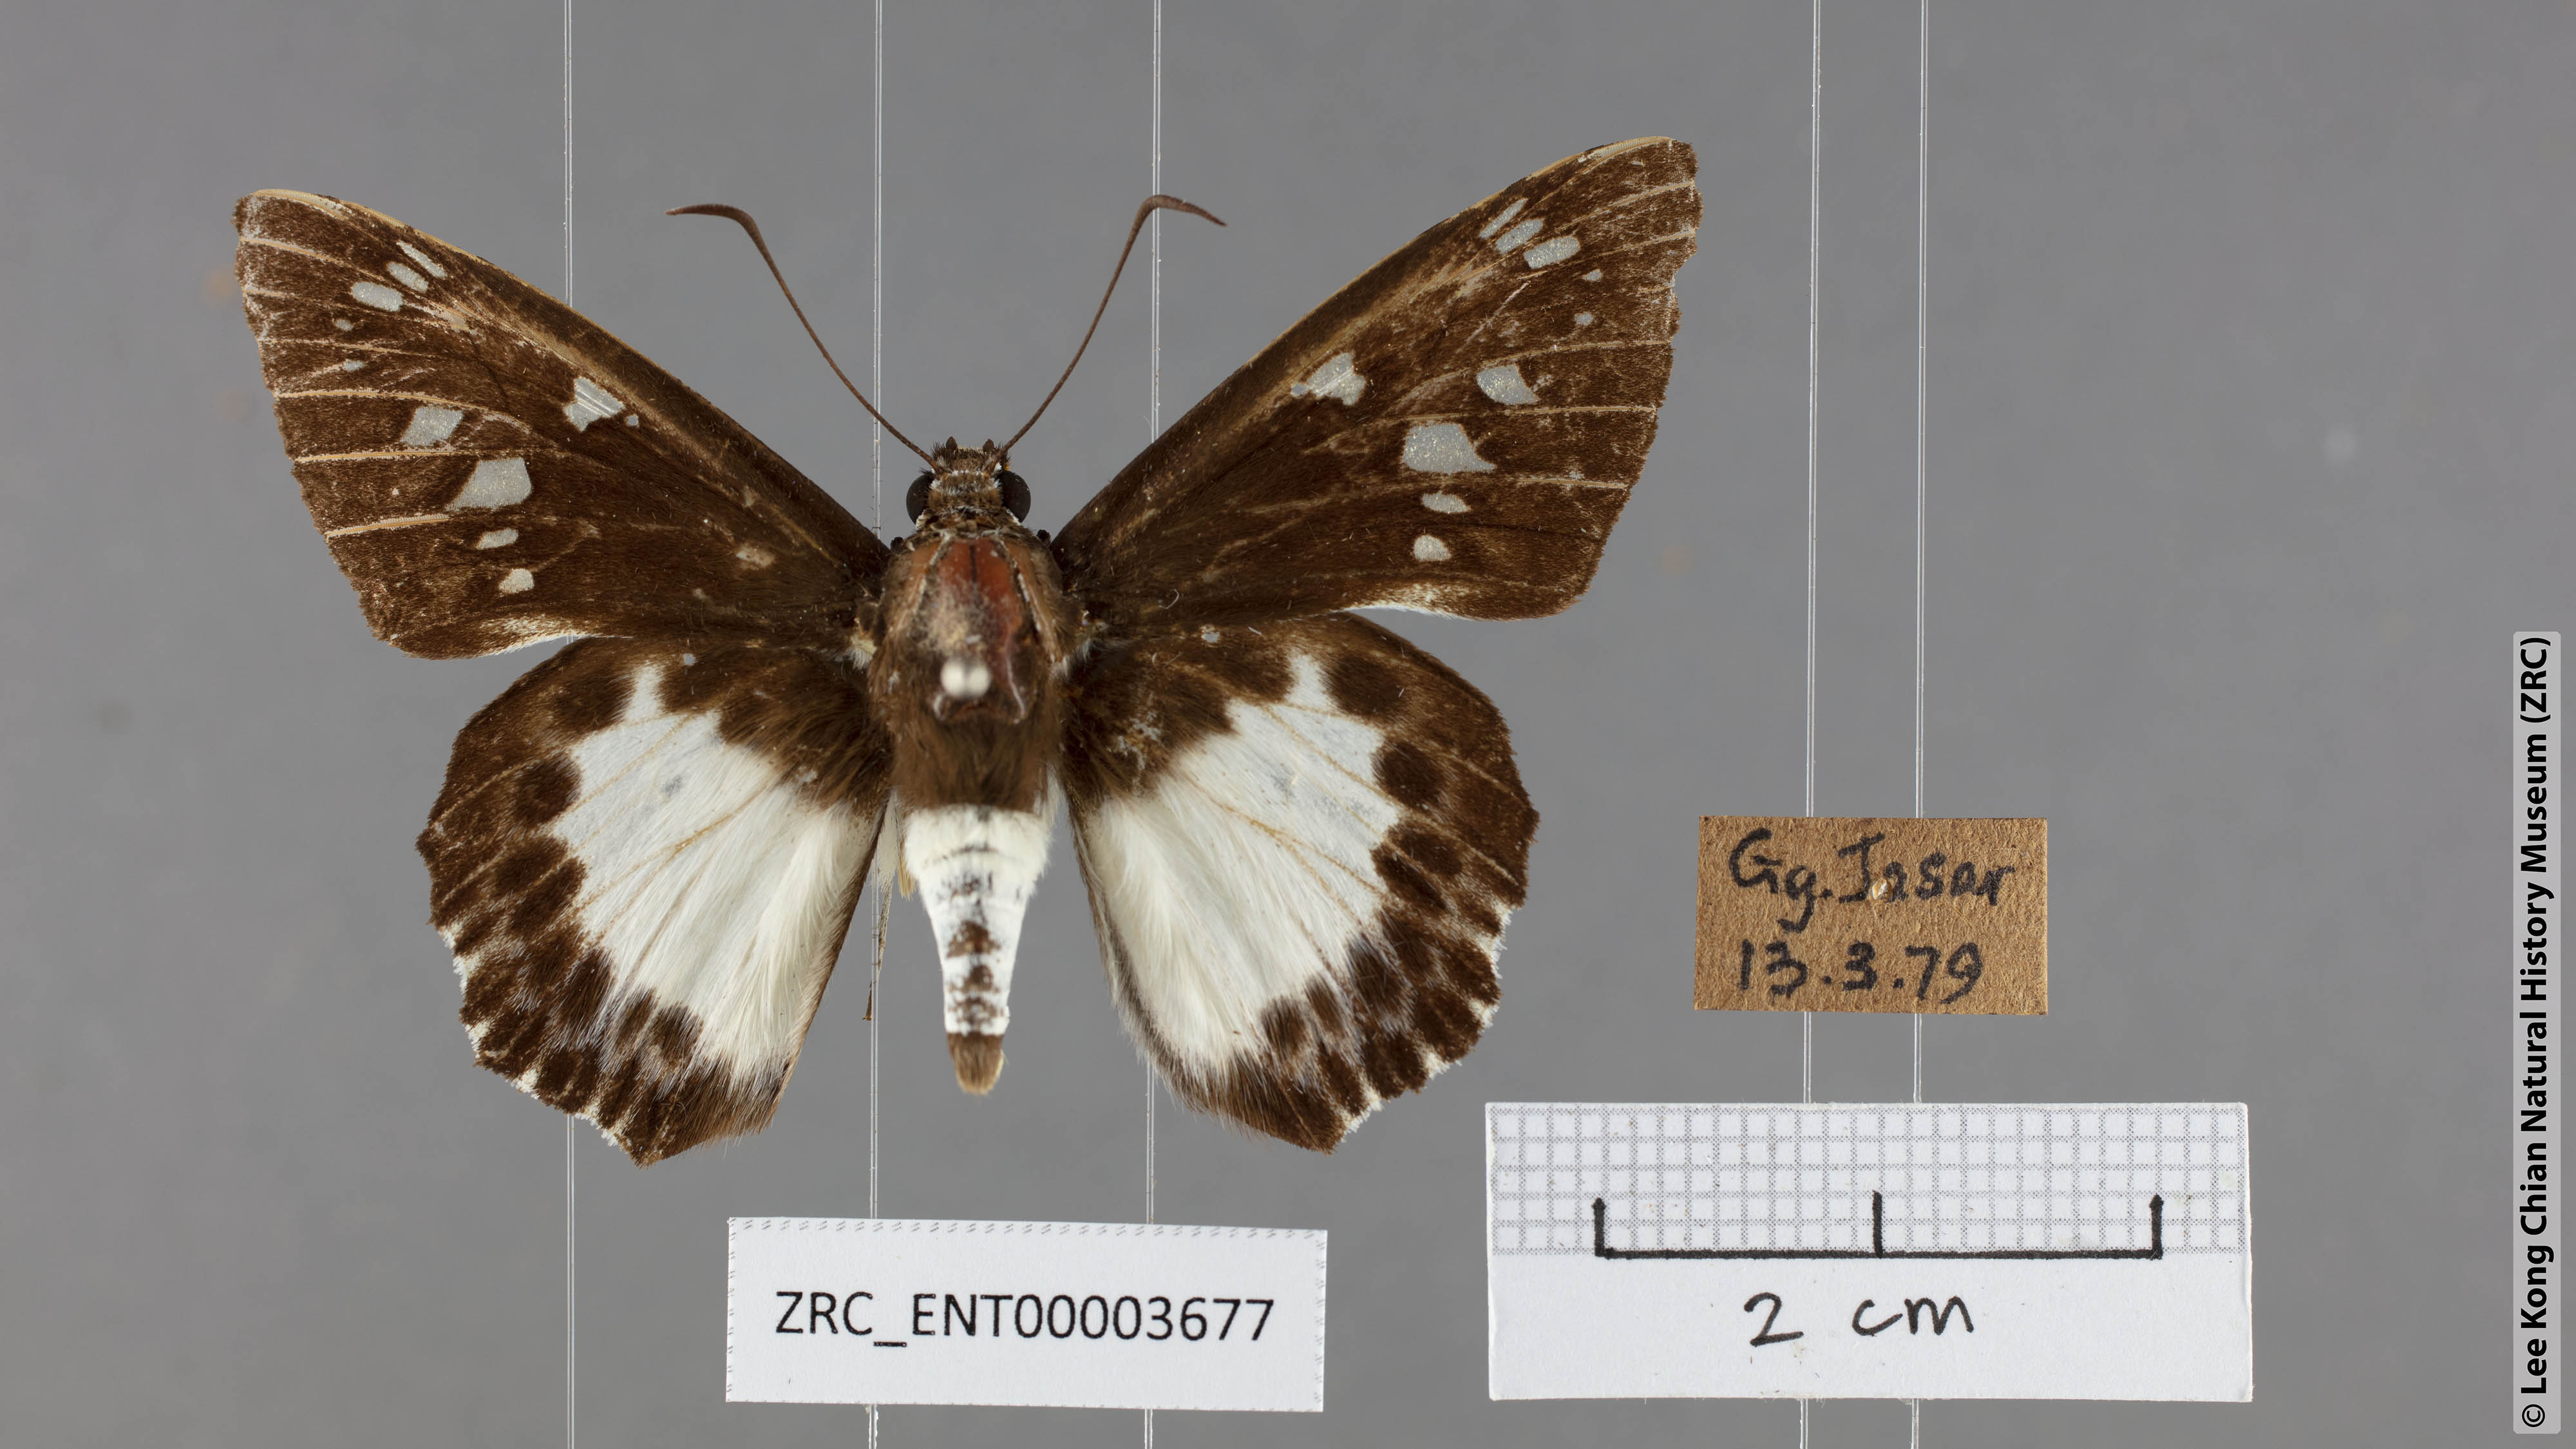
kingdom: Animalia
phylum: Arthropoda
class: Insecta
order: Lepidoptera
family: Hesperiidae
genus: Satarupa
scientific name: Satarupa gopala
